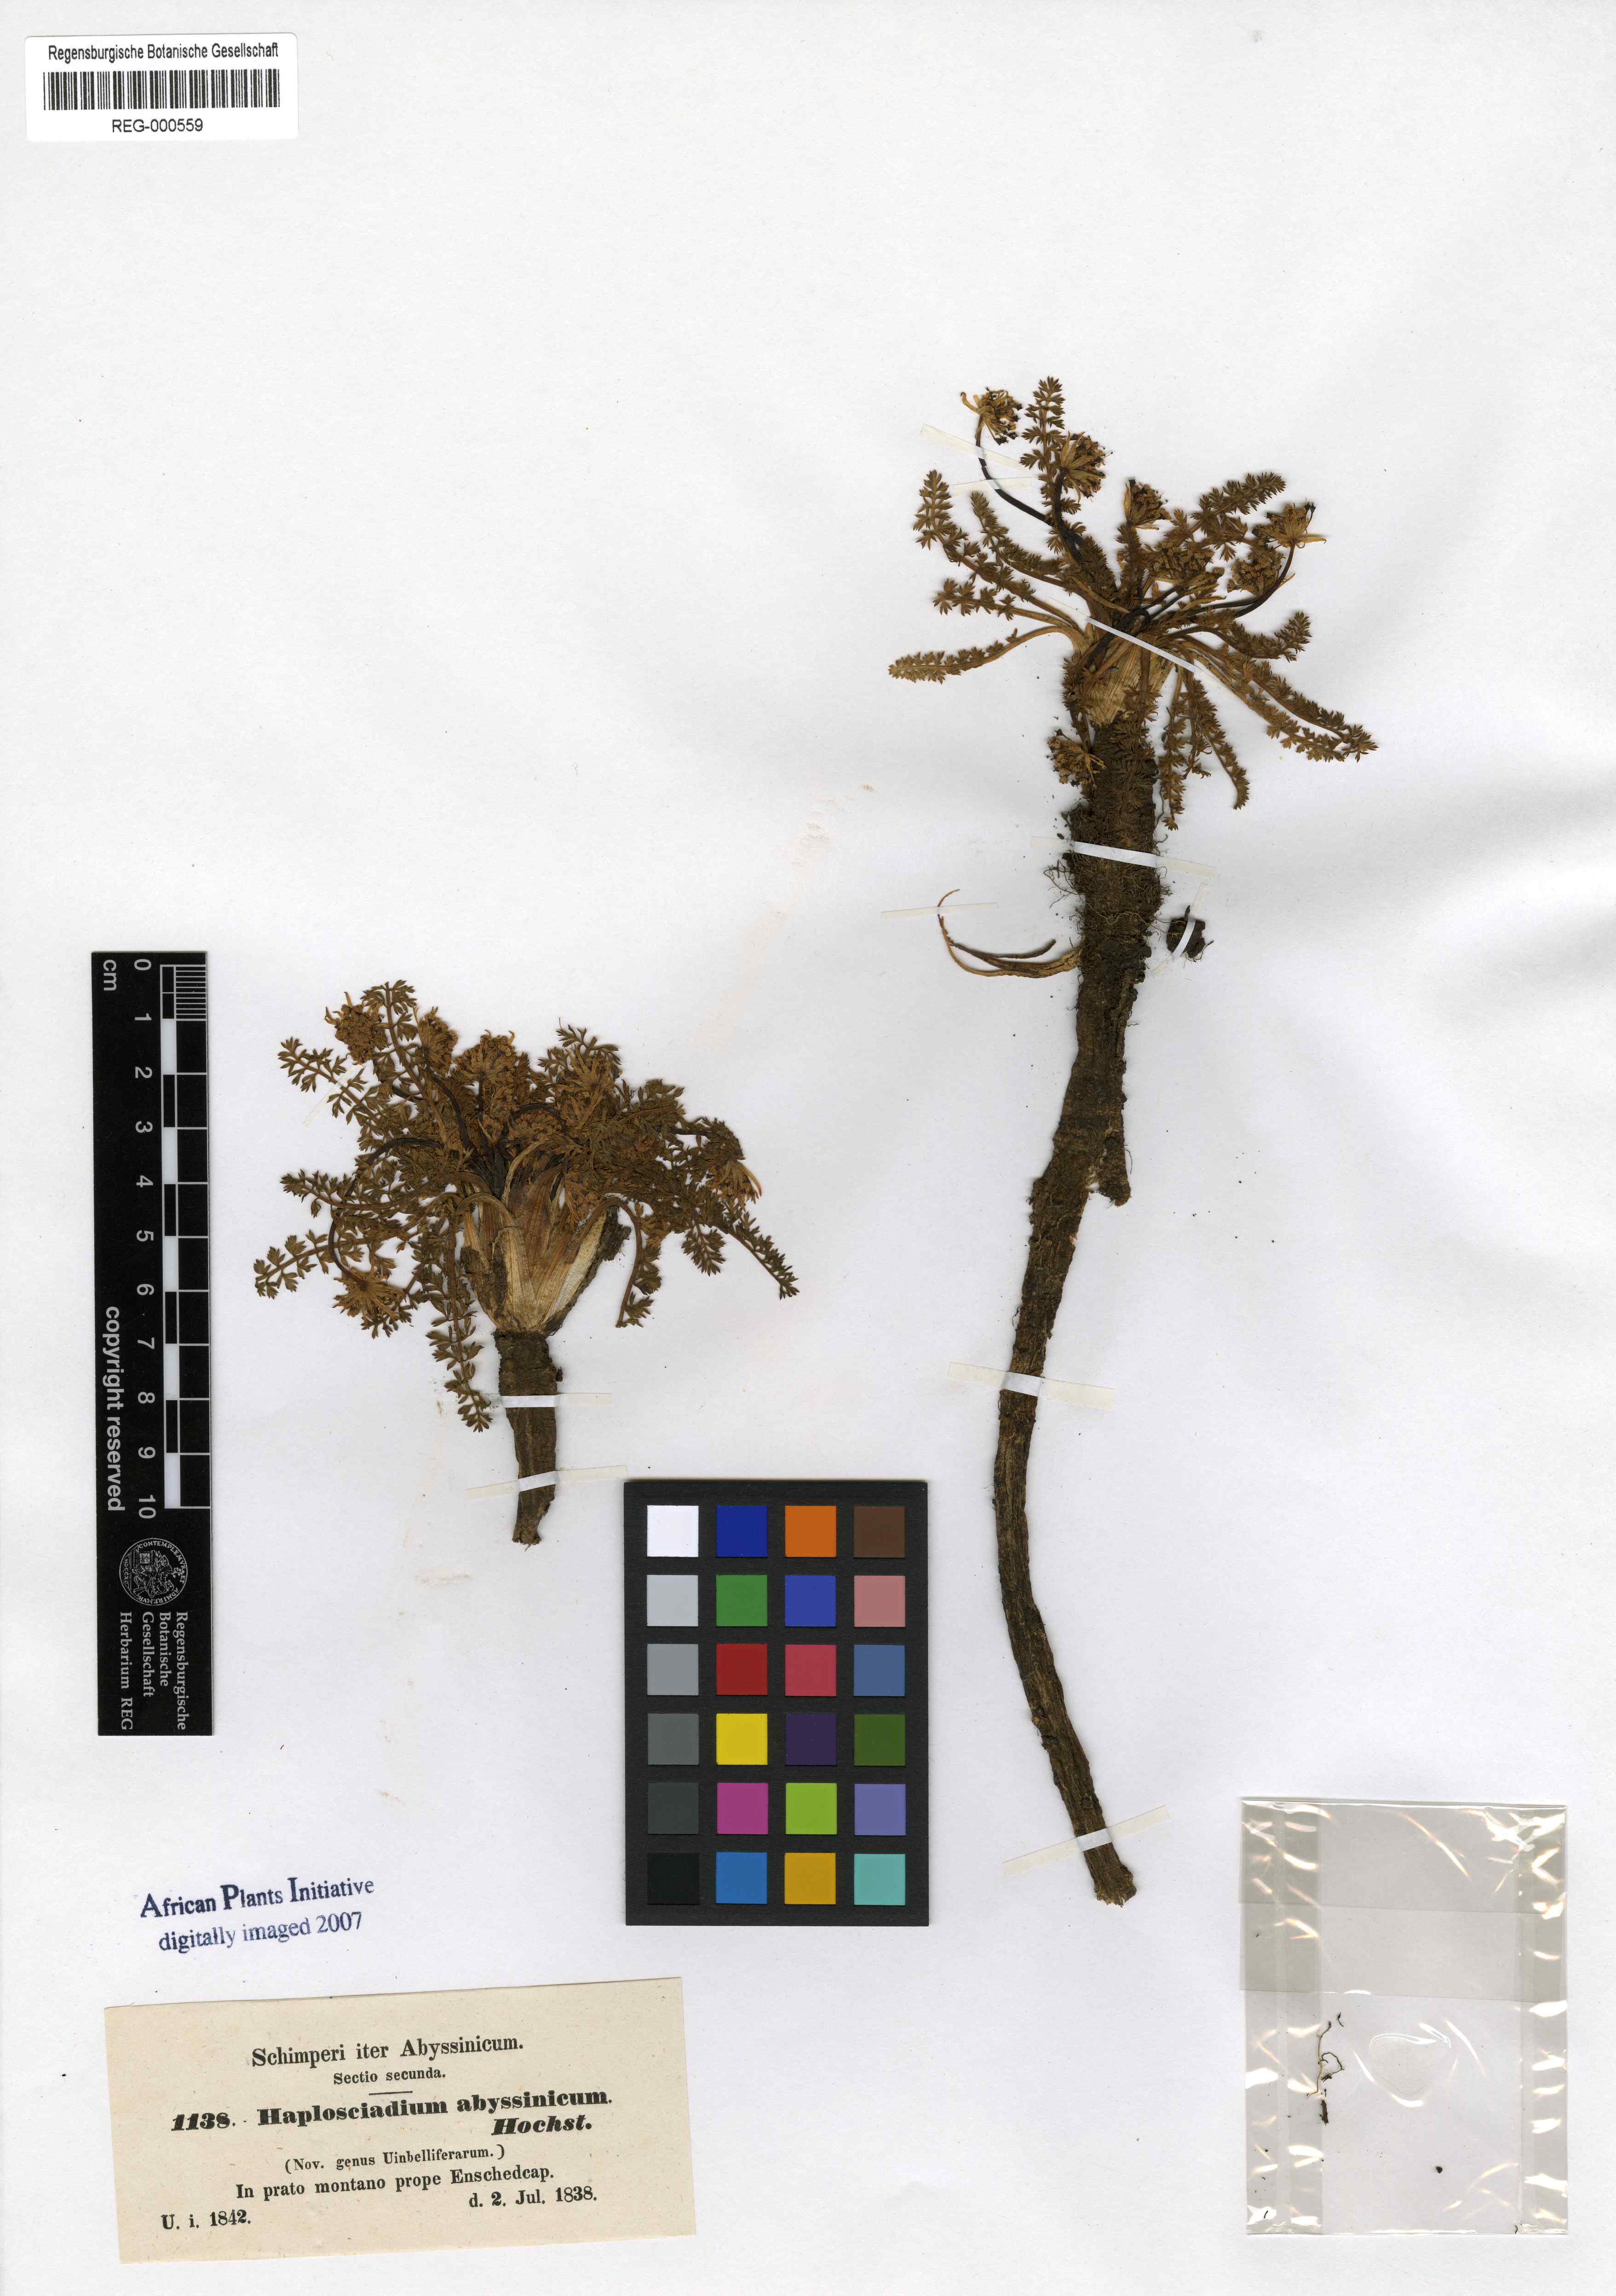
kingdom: Plantae
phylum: Tracheophyta
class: Magnoliopsida
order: Apiales
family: Apiaceae
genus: Haplosciadium
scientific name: Haplosciadium abyssinicum
